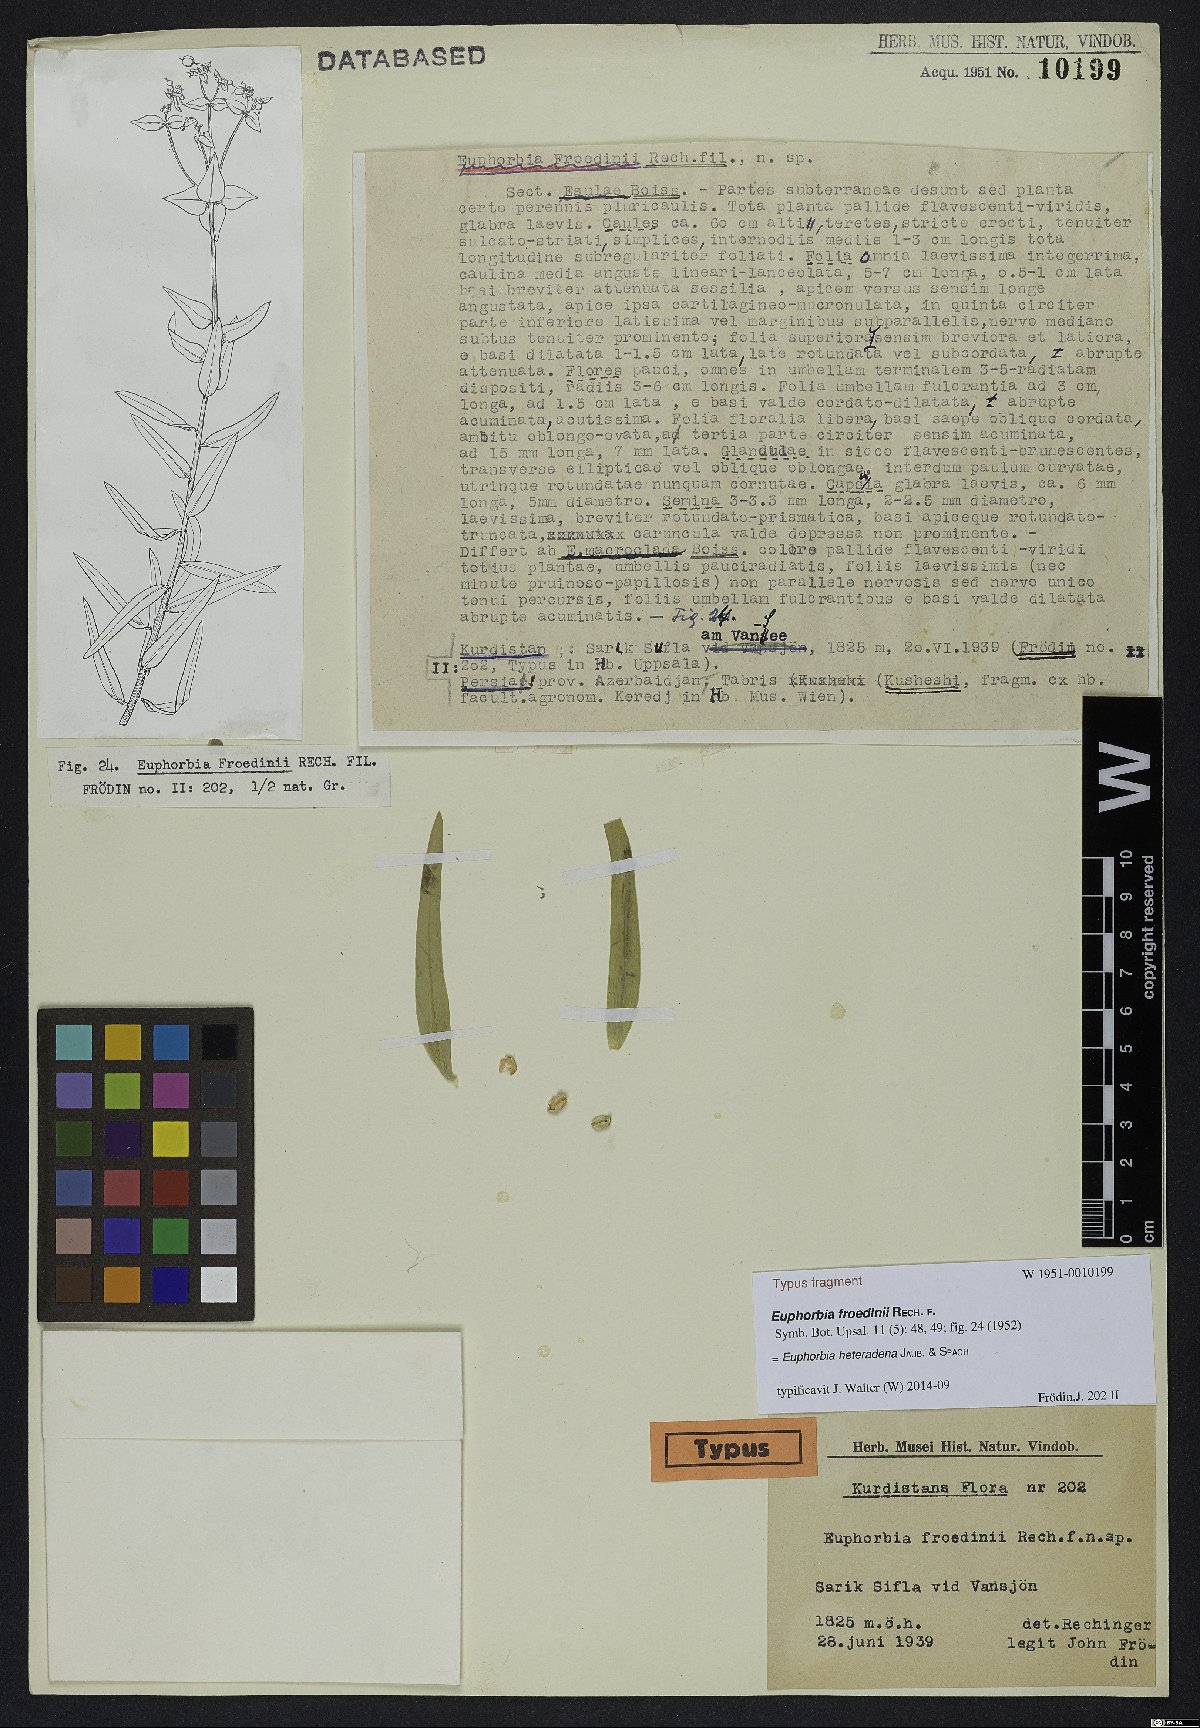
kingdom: Plantae
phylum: Tracheophyta
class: Magnoliopsida
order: Malpighiales
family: Euphorbiaceae
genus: Euphorbia
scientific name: Euphorbia heteradena
